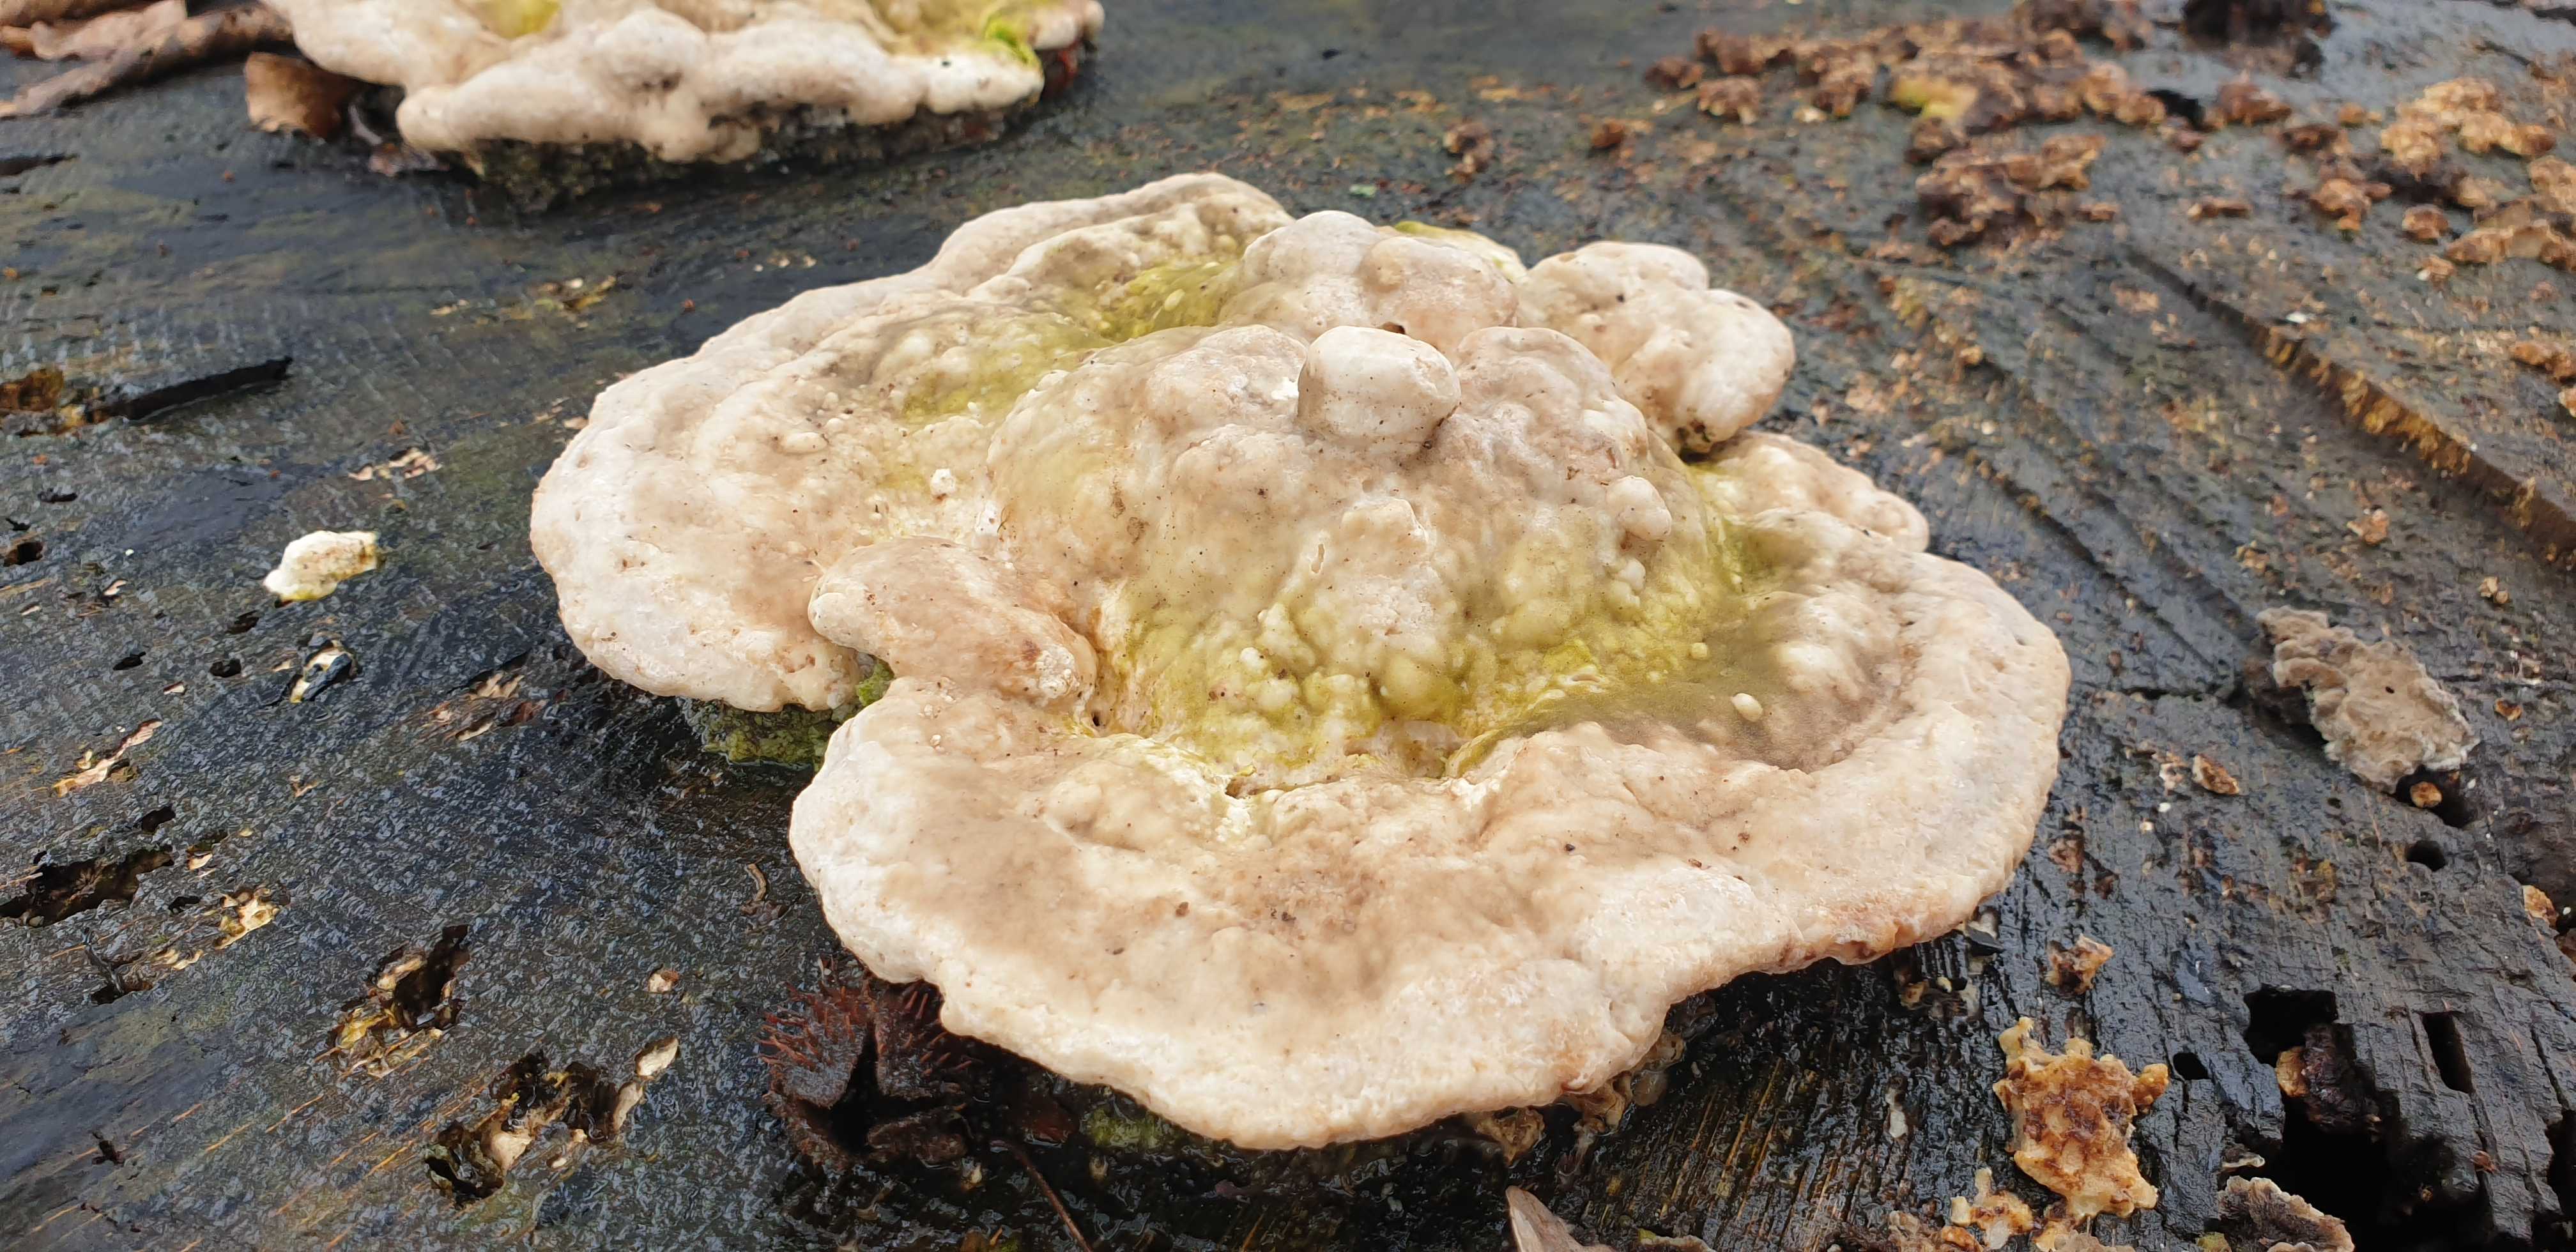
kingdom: Fungi
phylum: Basidiomycota
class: Agaricomycetes
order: Polyporales
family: Polyporaceae
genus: Trametes
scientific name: Trametes gibbosa
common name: puklet læderporesvamp
